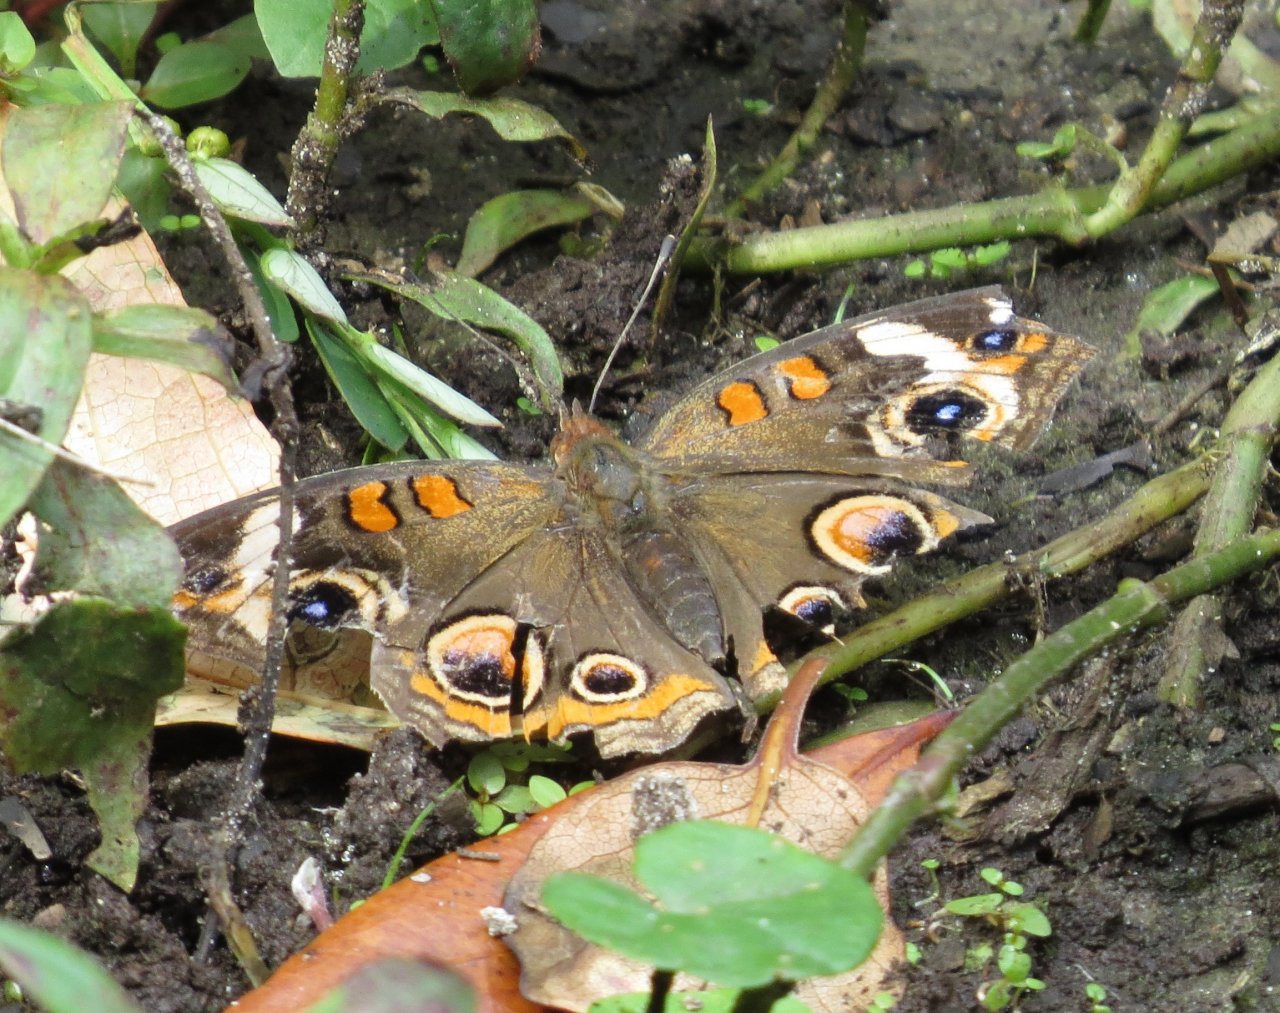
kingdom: Animalia
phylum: Arthropoda
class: Insecta
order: Lepidoptera
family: Nymphalidae
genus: Junonia
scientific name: Junonia coenia
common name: Common Buckeye
